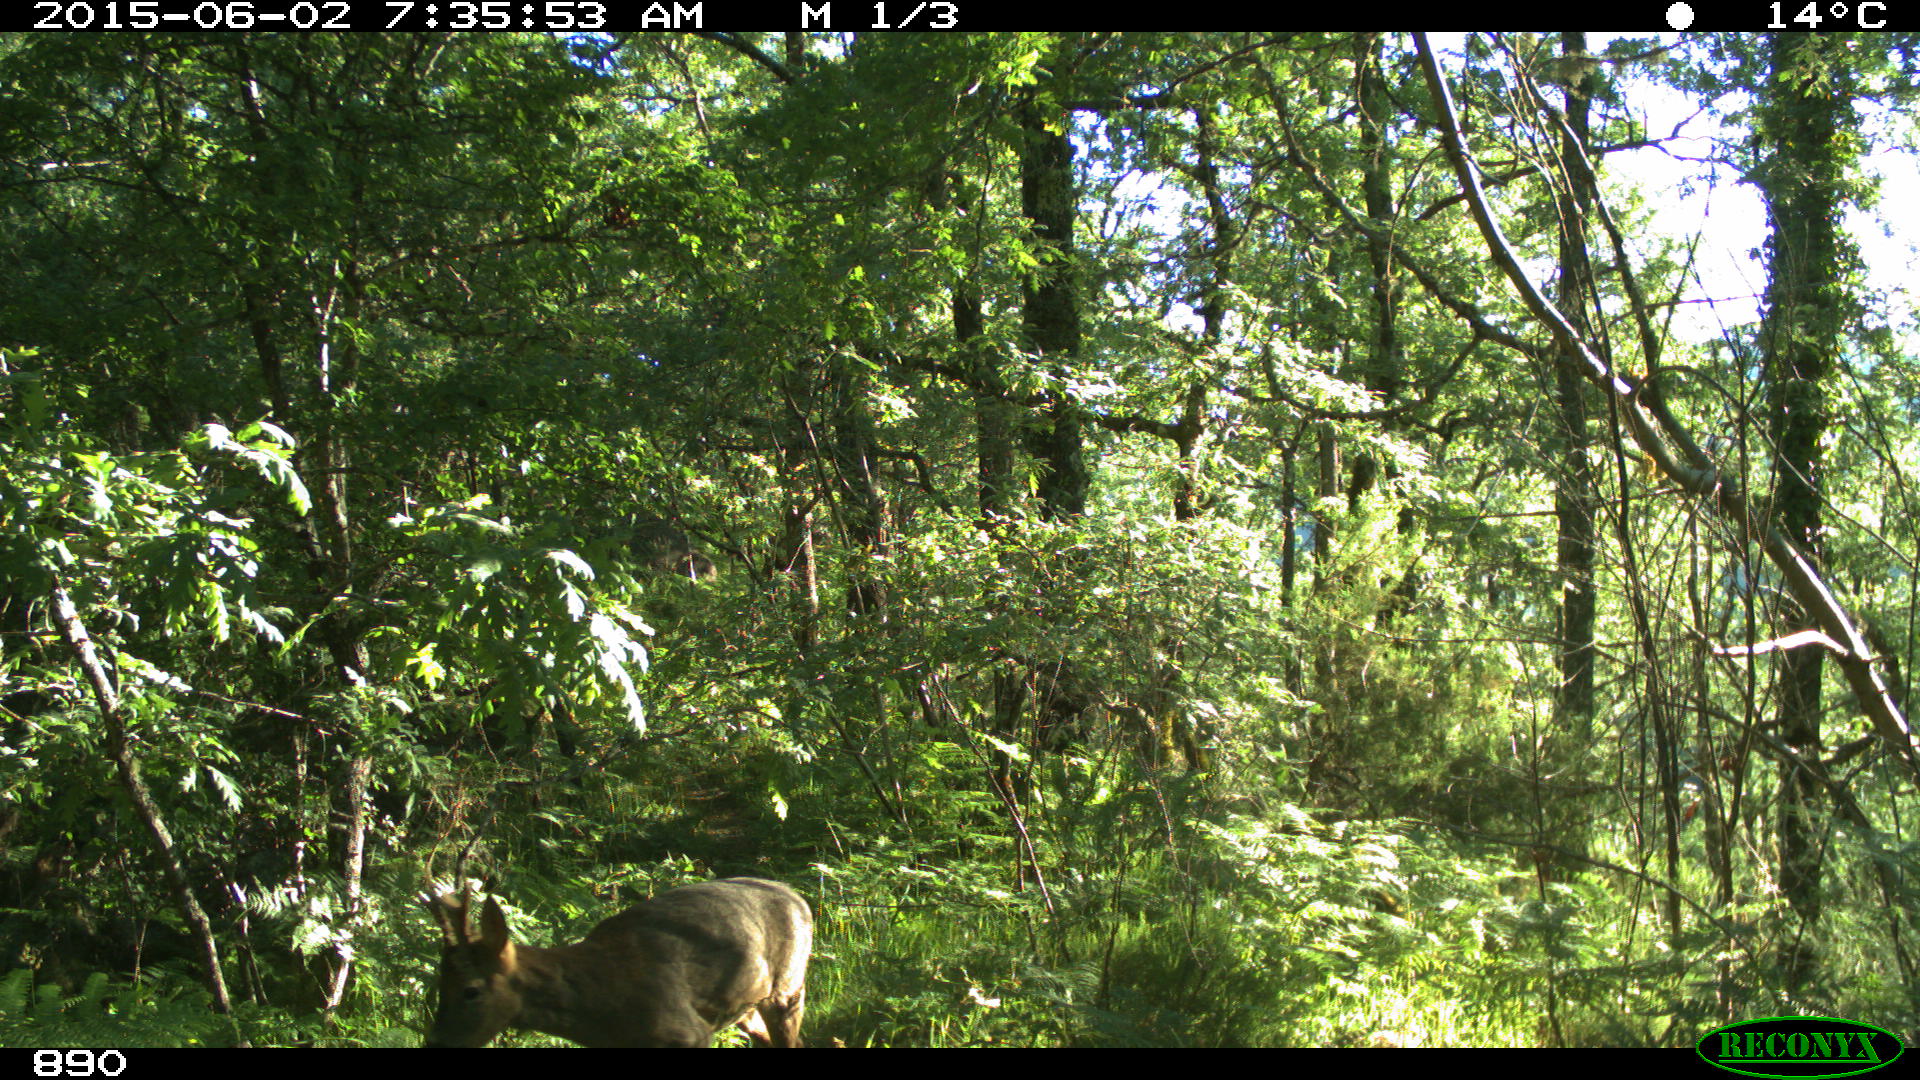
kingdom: Animalia
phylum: Chordata
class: Mammalia
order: Artiodactyla
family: Cervidae
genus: Capreolus
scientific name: Capreolus capreolus
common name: Western roe deer
